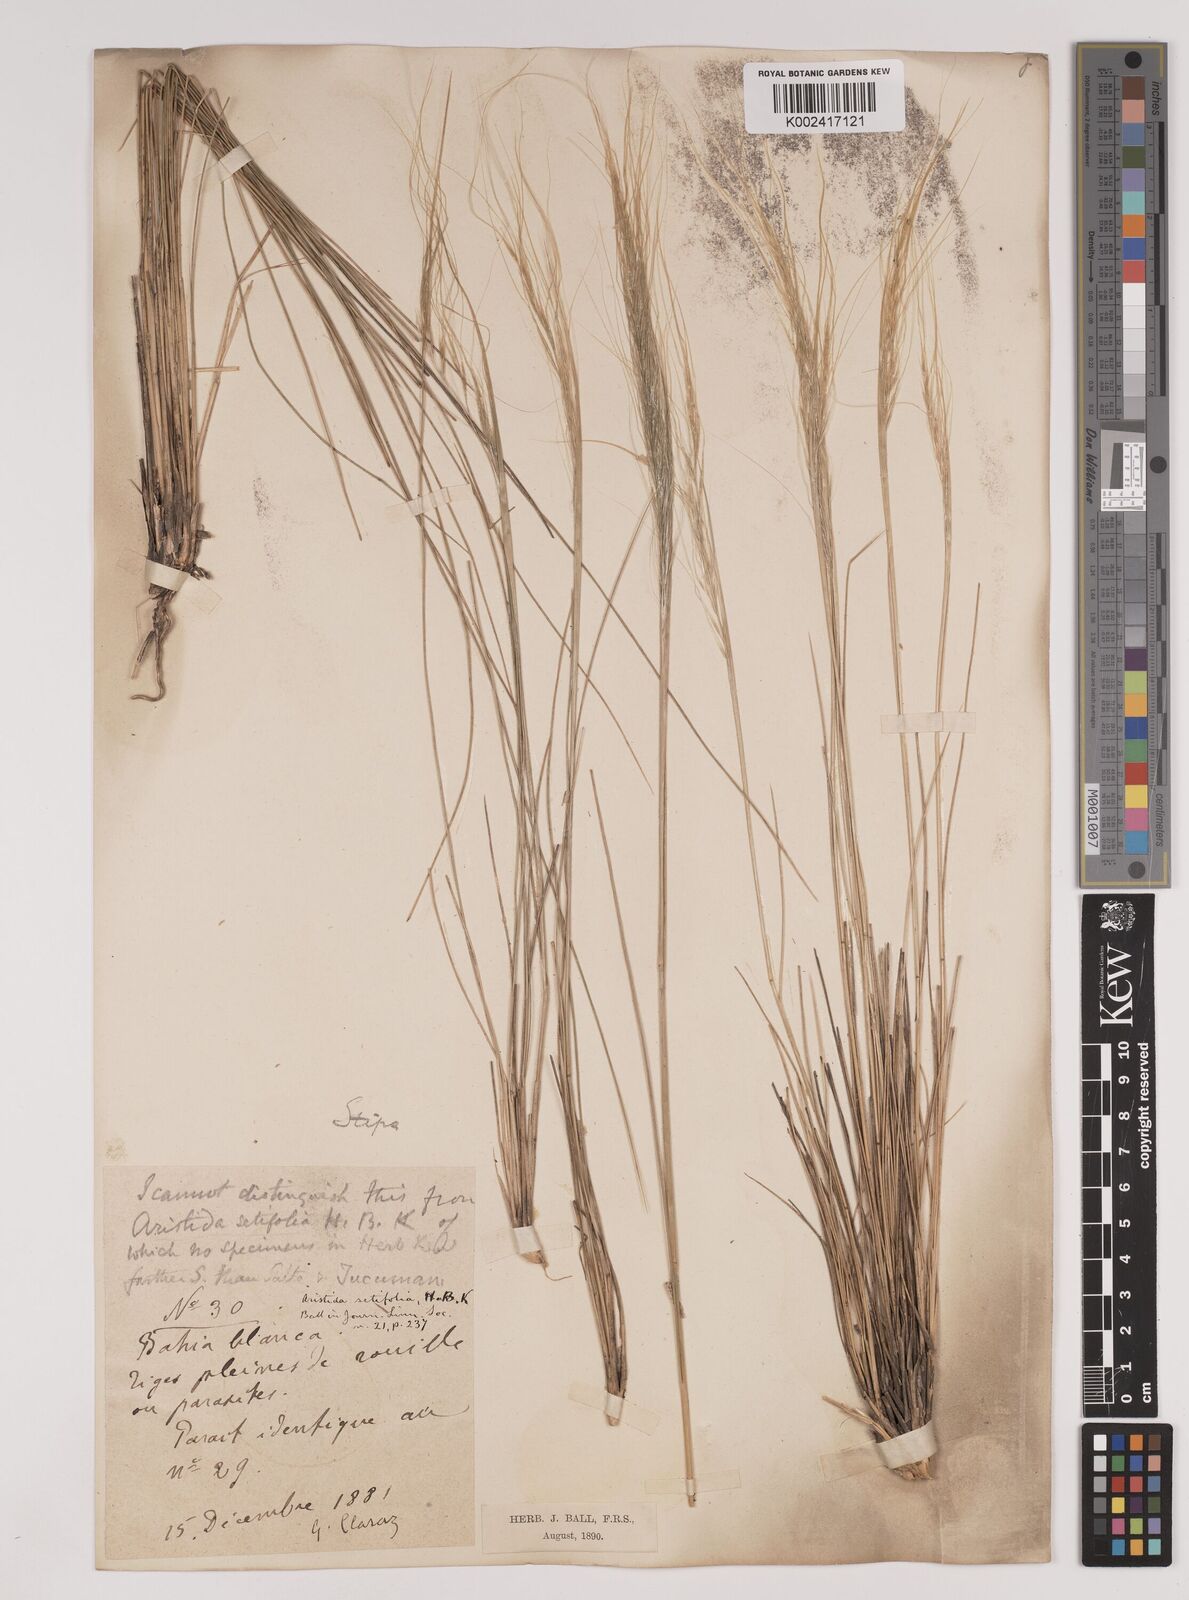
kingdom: Plantae
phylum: Tracheophyta
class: Liliopsida
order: Poales
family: Poaceae
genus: Stipa
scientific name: Stipa
